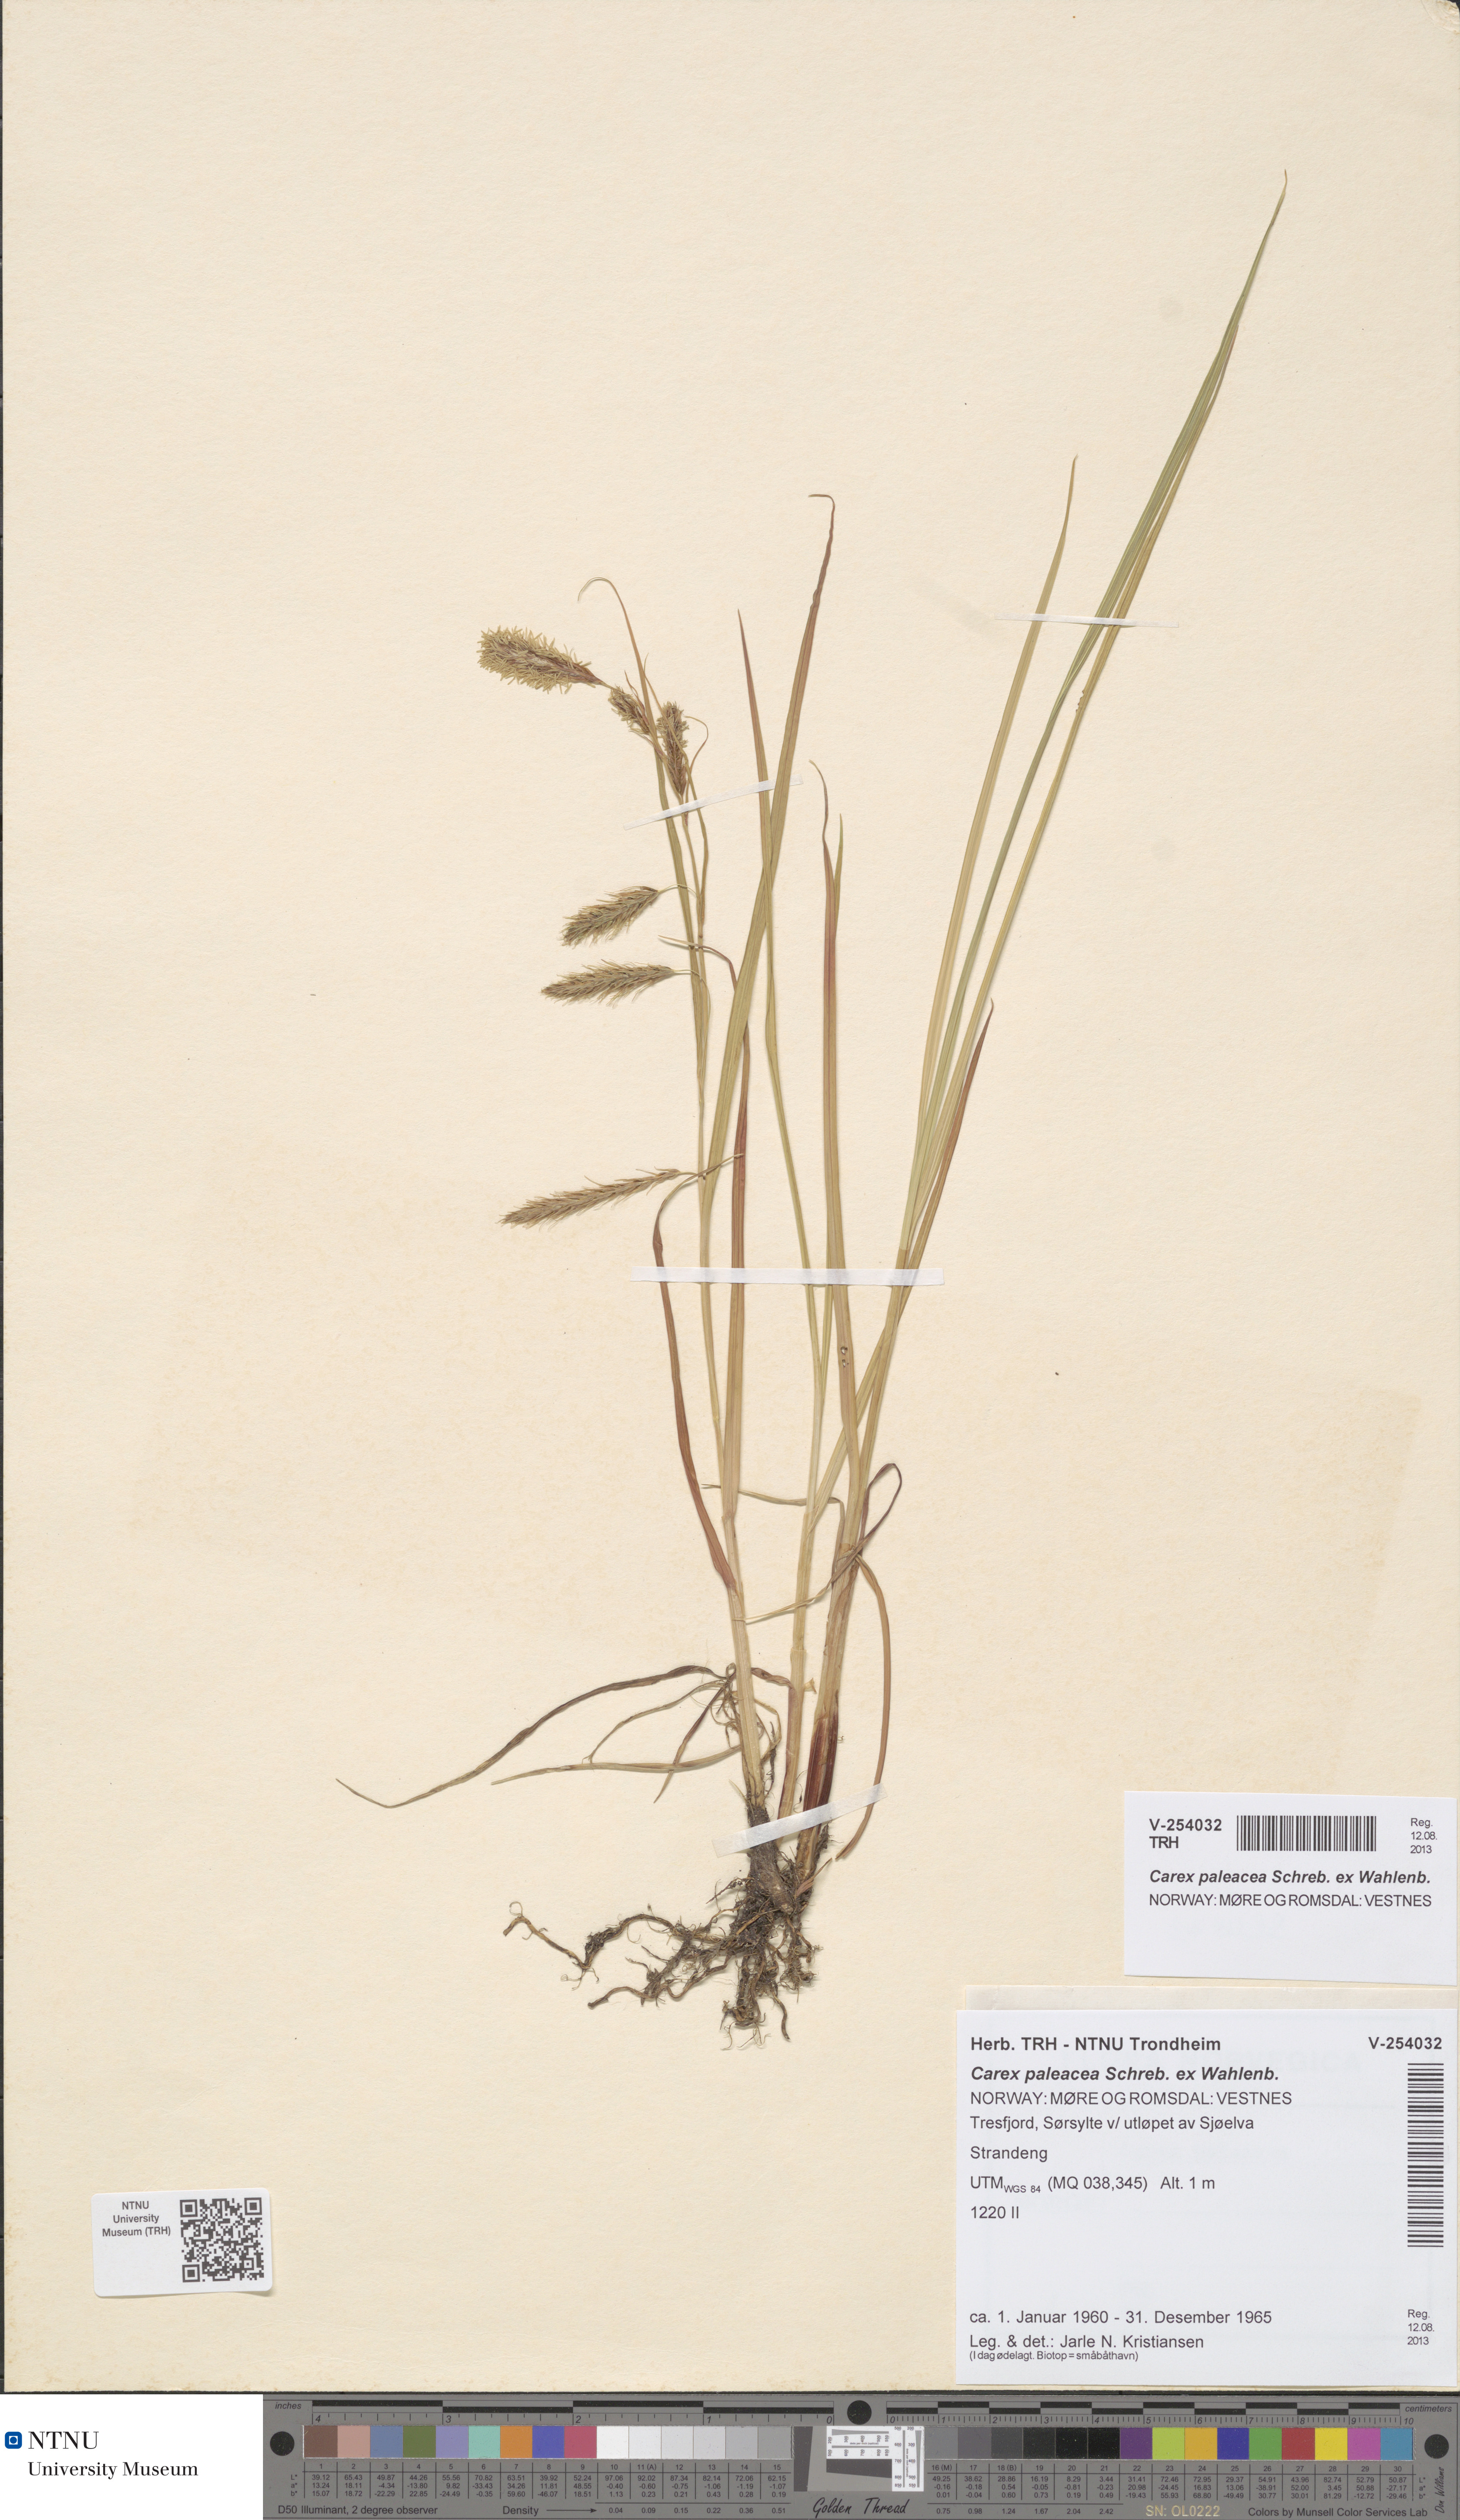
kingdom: Plantae
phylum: Tracheophyta
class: Liliopsida
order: Poales
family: Cyperaceae
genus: Carex
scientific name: Carex paleacea
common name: Chaffy sedge
